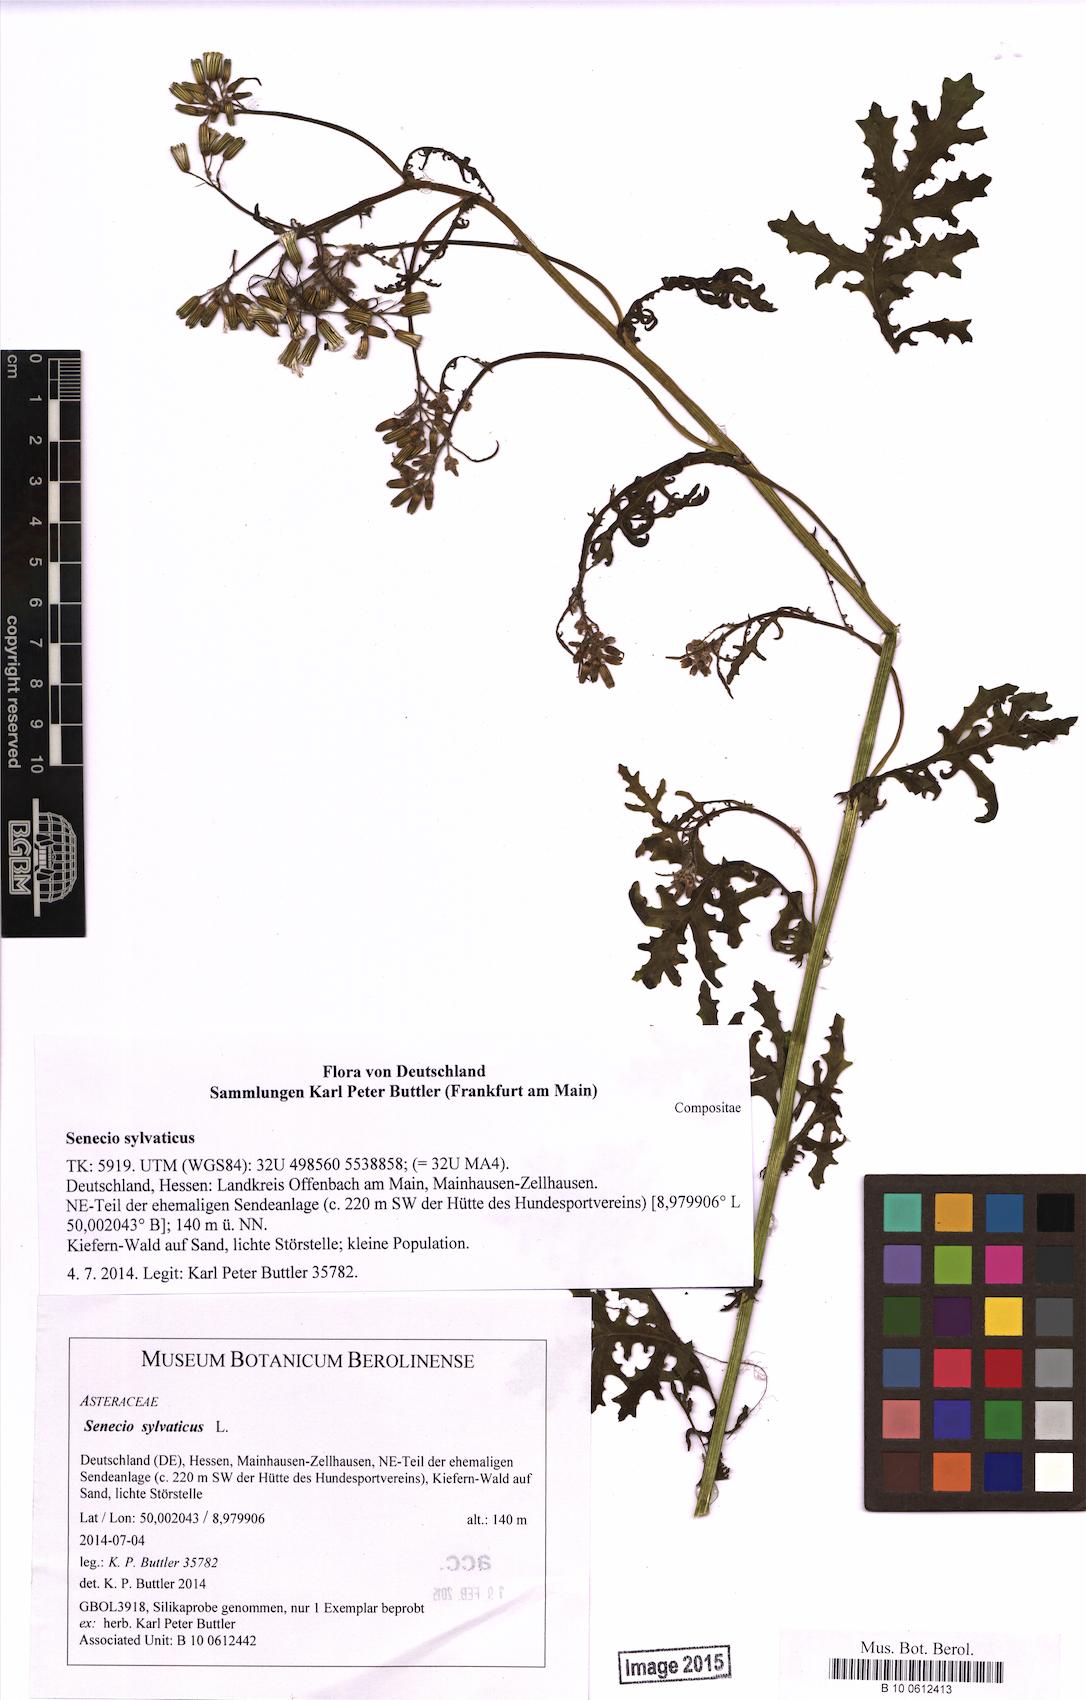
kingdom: Plantae
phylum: Tracheophyta
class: Magnoliopsida
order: Asterales
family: Asteraceae
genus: Senecio
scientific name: Senecio sylvaticus
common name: Woodland ragwort
